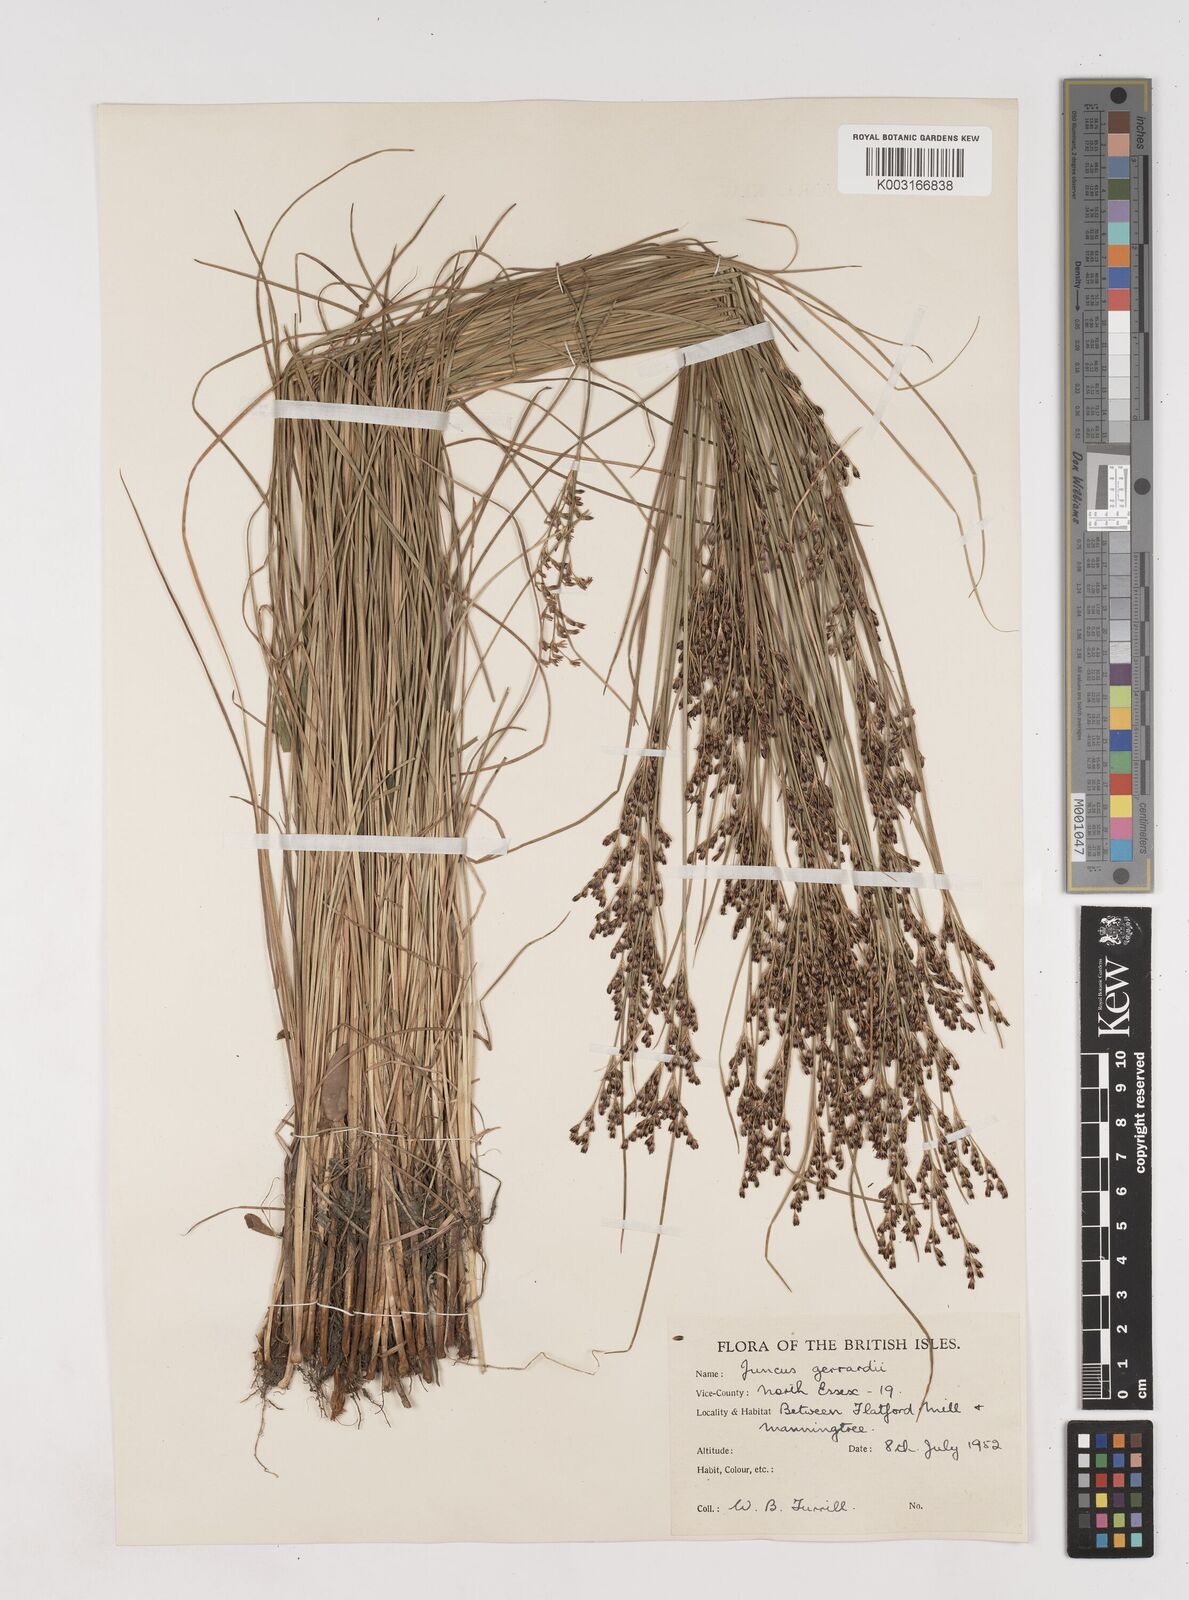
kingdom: Plantae
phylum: Tracheophyta
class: Liliopsida
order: Poales
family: Juncaceae
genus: Juncus
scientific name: Juncus gerardi
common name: Saltmarsh rush
